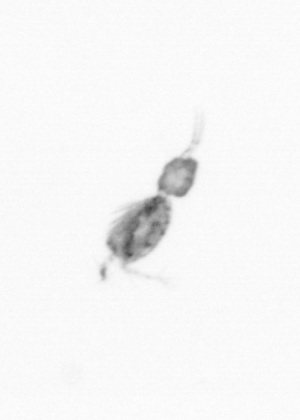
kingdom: Animalia
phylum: Arthropoda
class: Copepoda
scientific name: Copepoda
